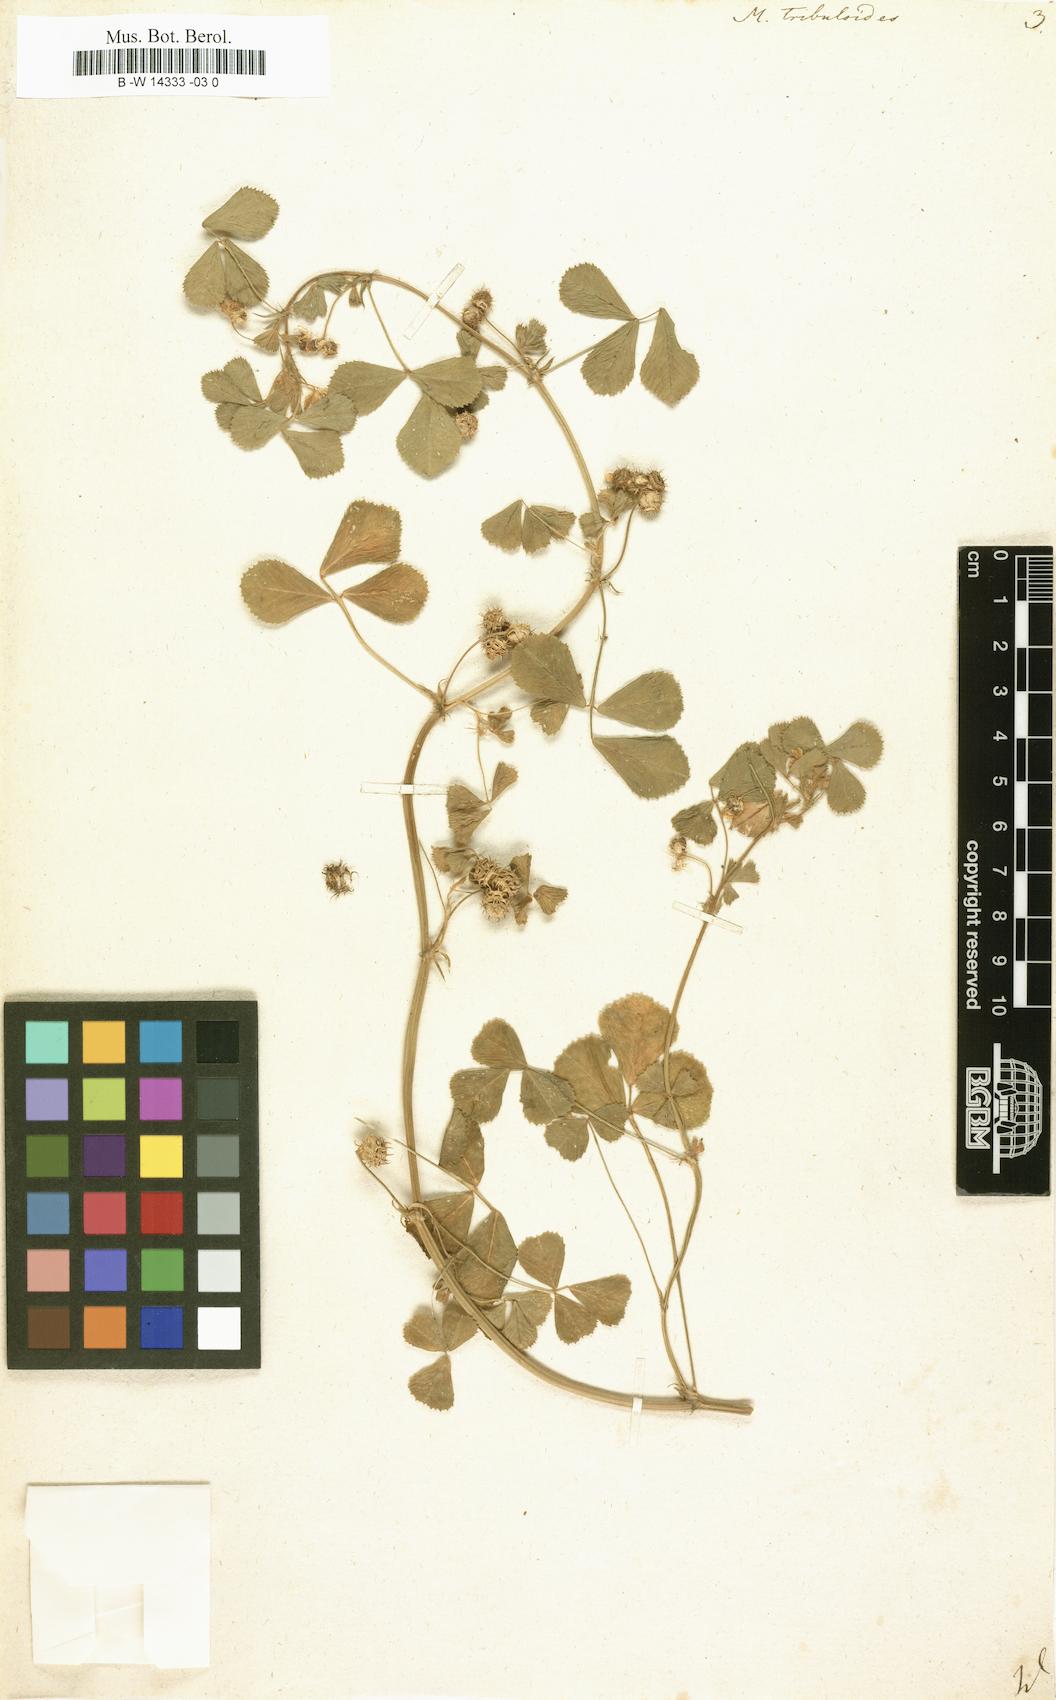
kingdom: Plantae
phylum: Tracheophyta
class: Magnoliopsida
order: Fabales
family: Fabaceae
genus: Medicago
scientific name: Medicago truncatula
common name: Strong-spined medick
